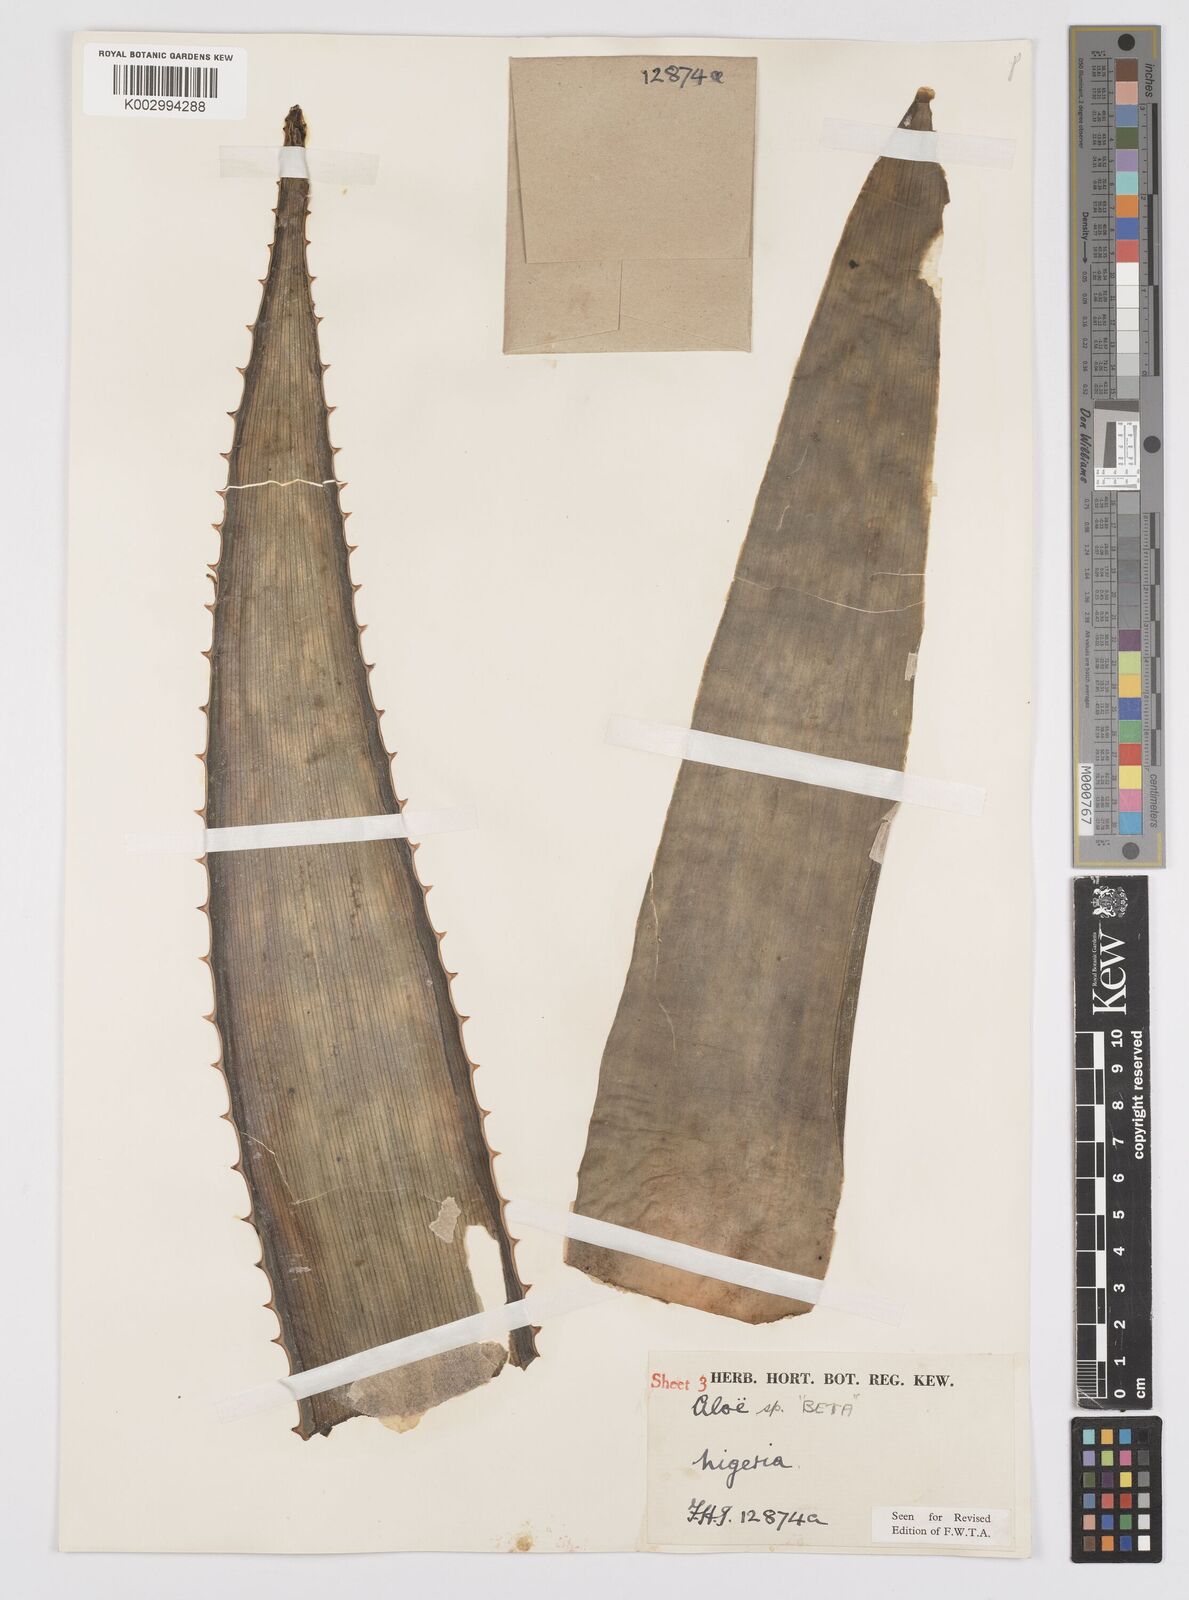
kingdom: Plantae
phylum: Tracheophyta
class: Liliopsida
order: Asparagales
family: Asphodelaceae
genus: Aloe
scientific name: Aloe macrocarpa
